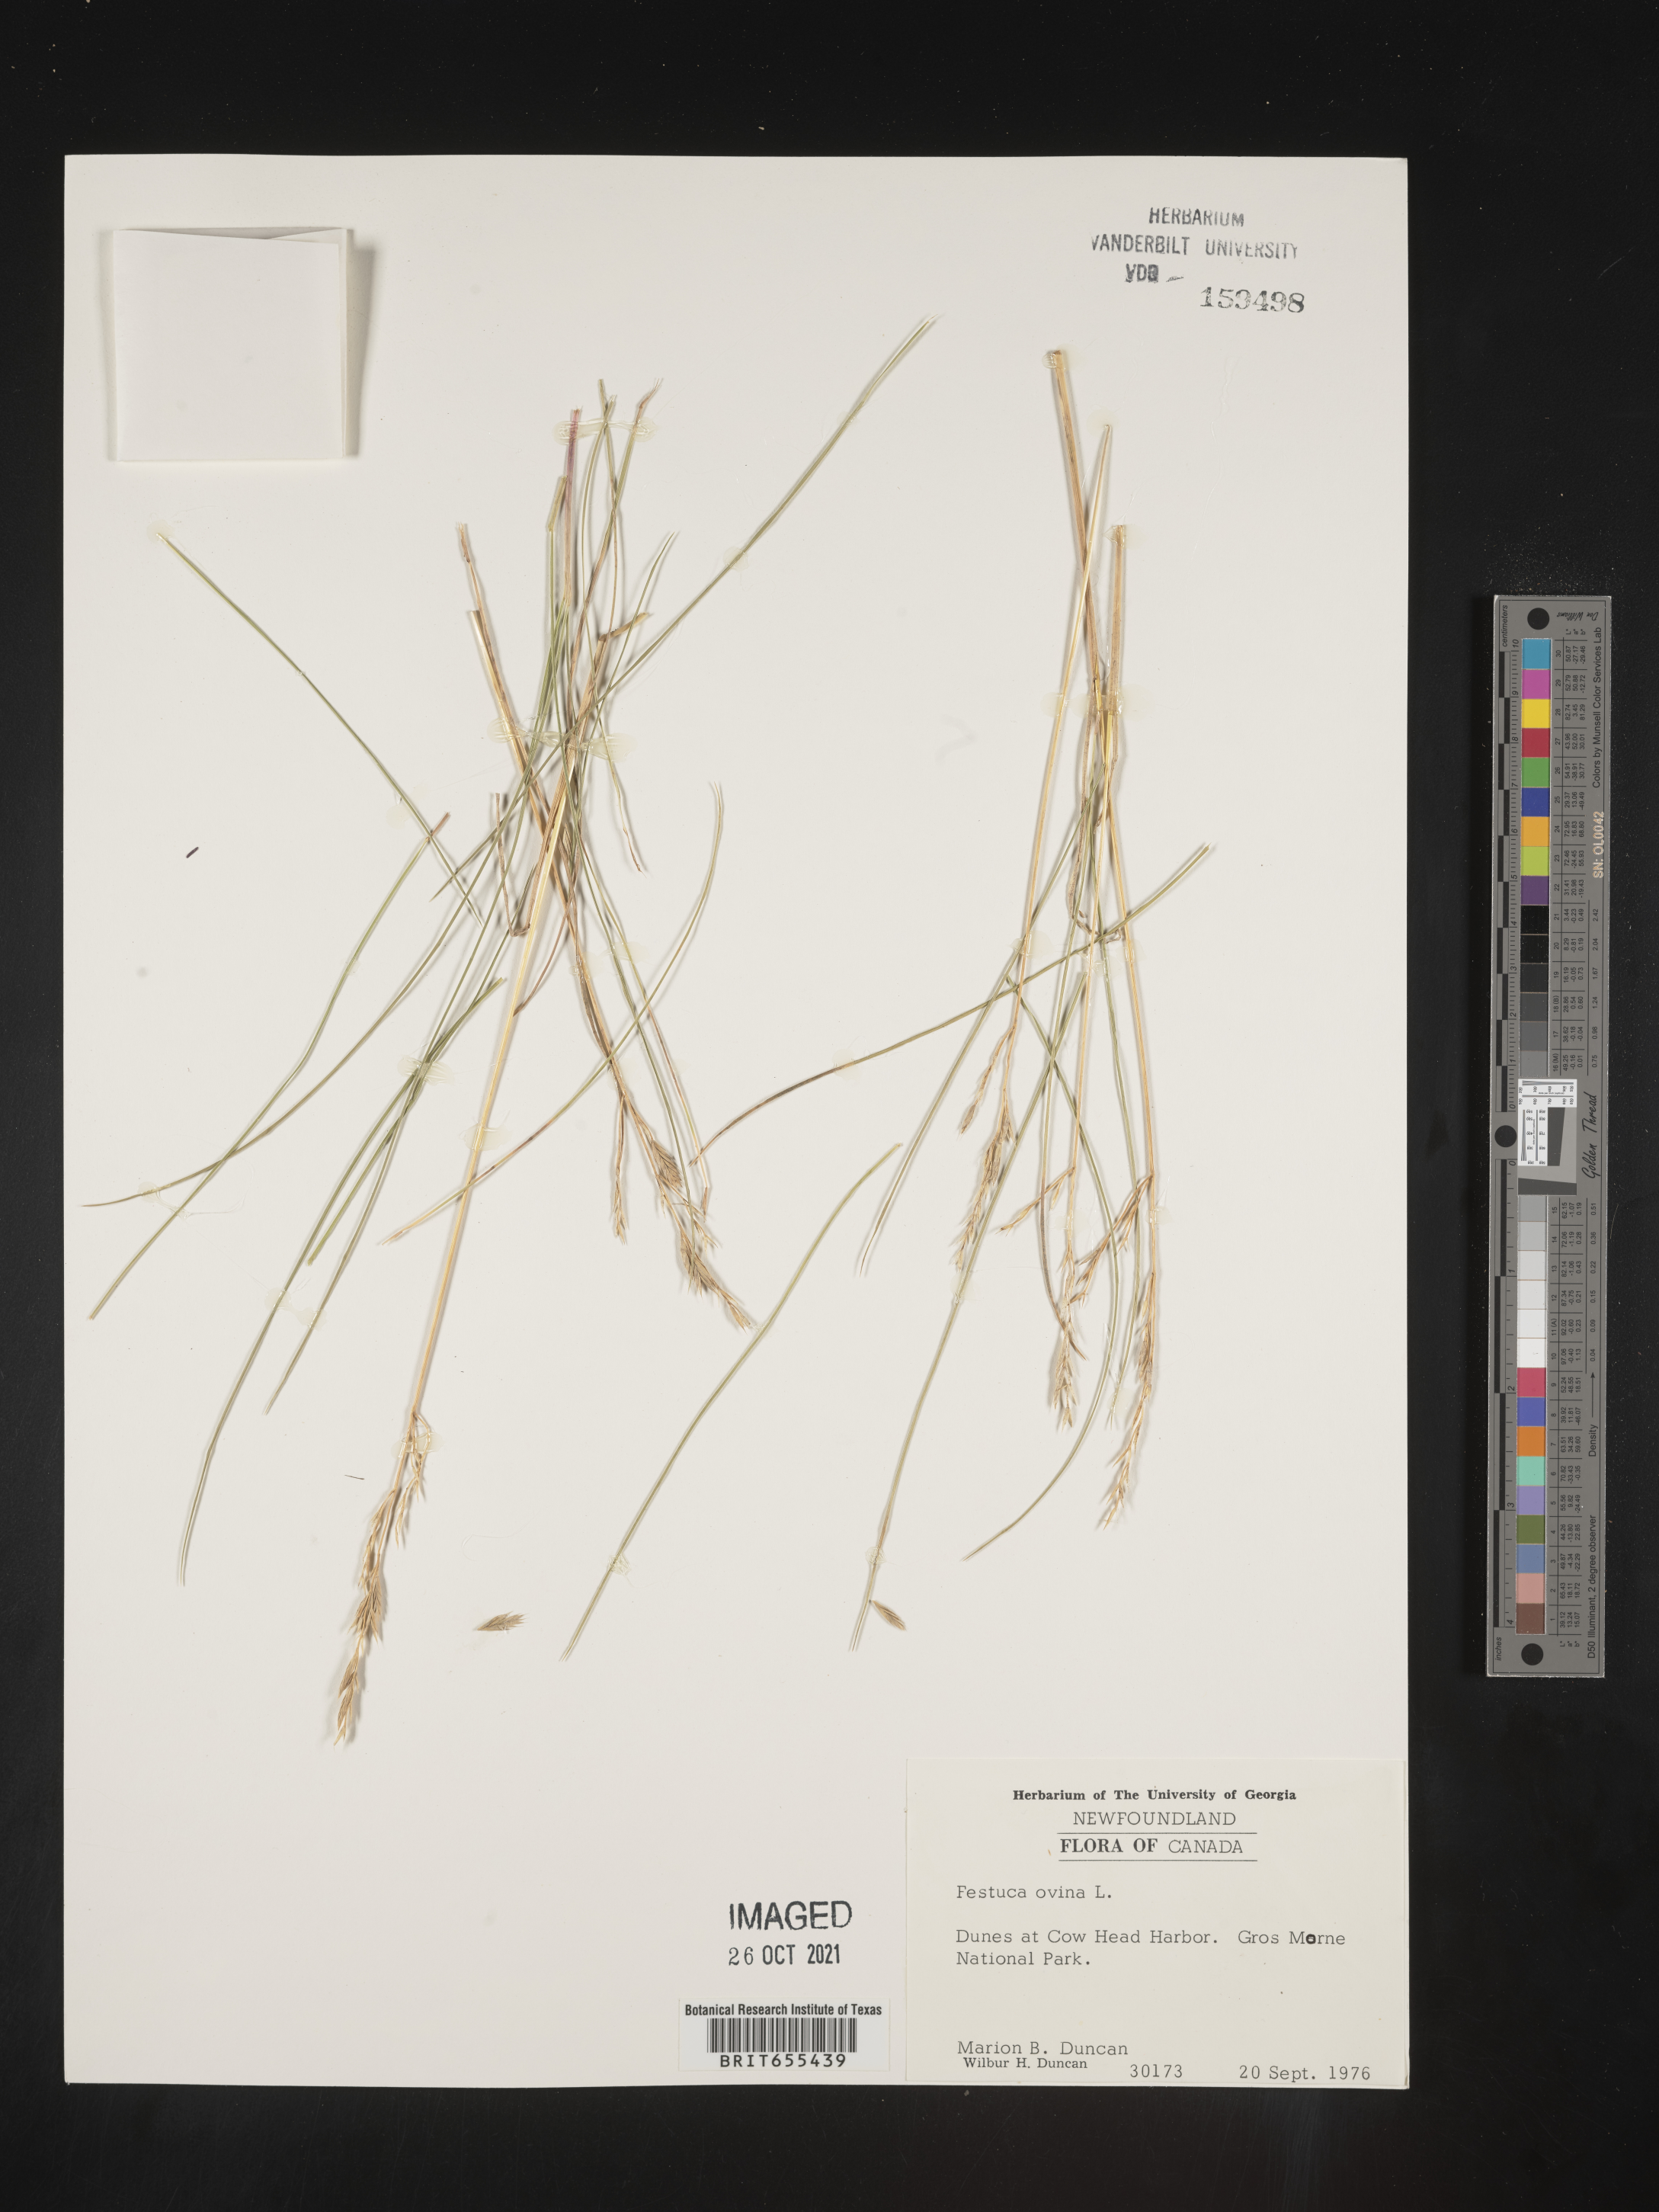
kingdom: Plantae
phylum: Tracheophyta
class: Liliopsida
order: Poales
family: Poaceae
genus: Festuca
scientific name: Festuca
